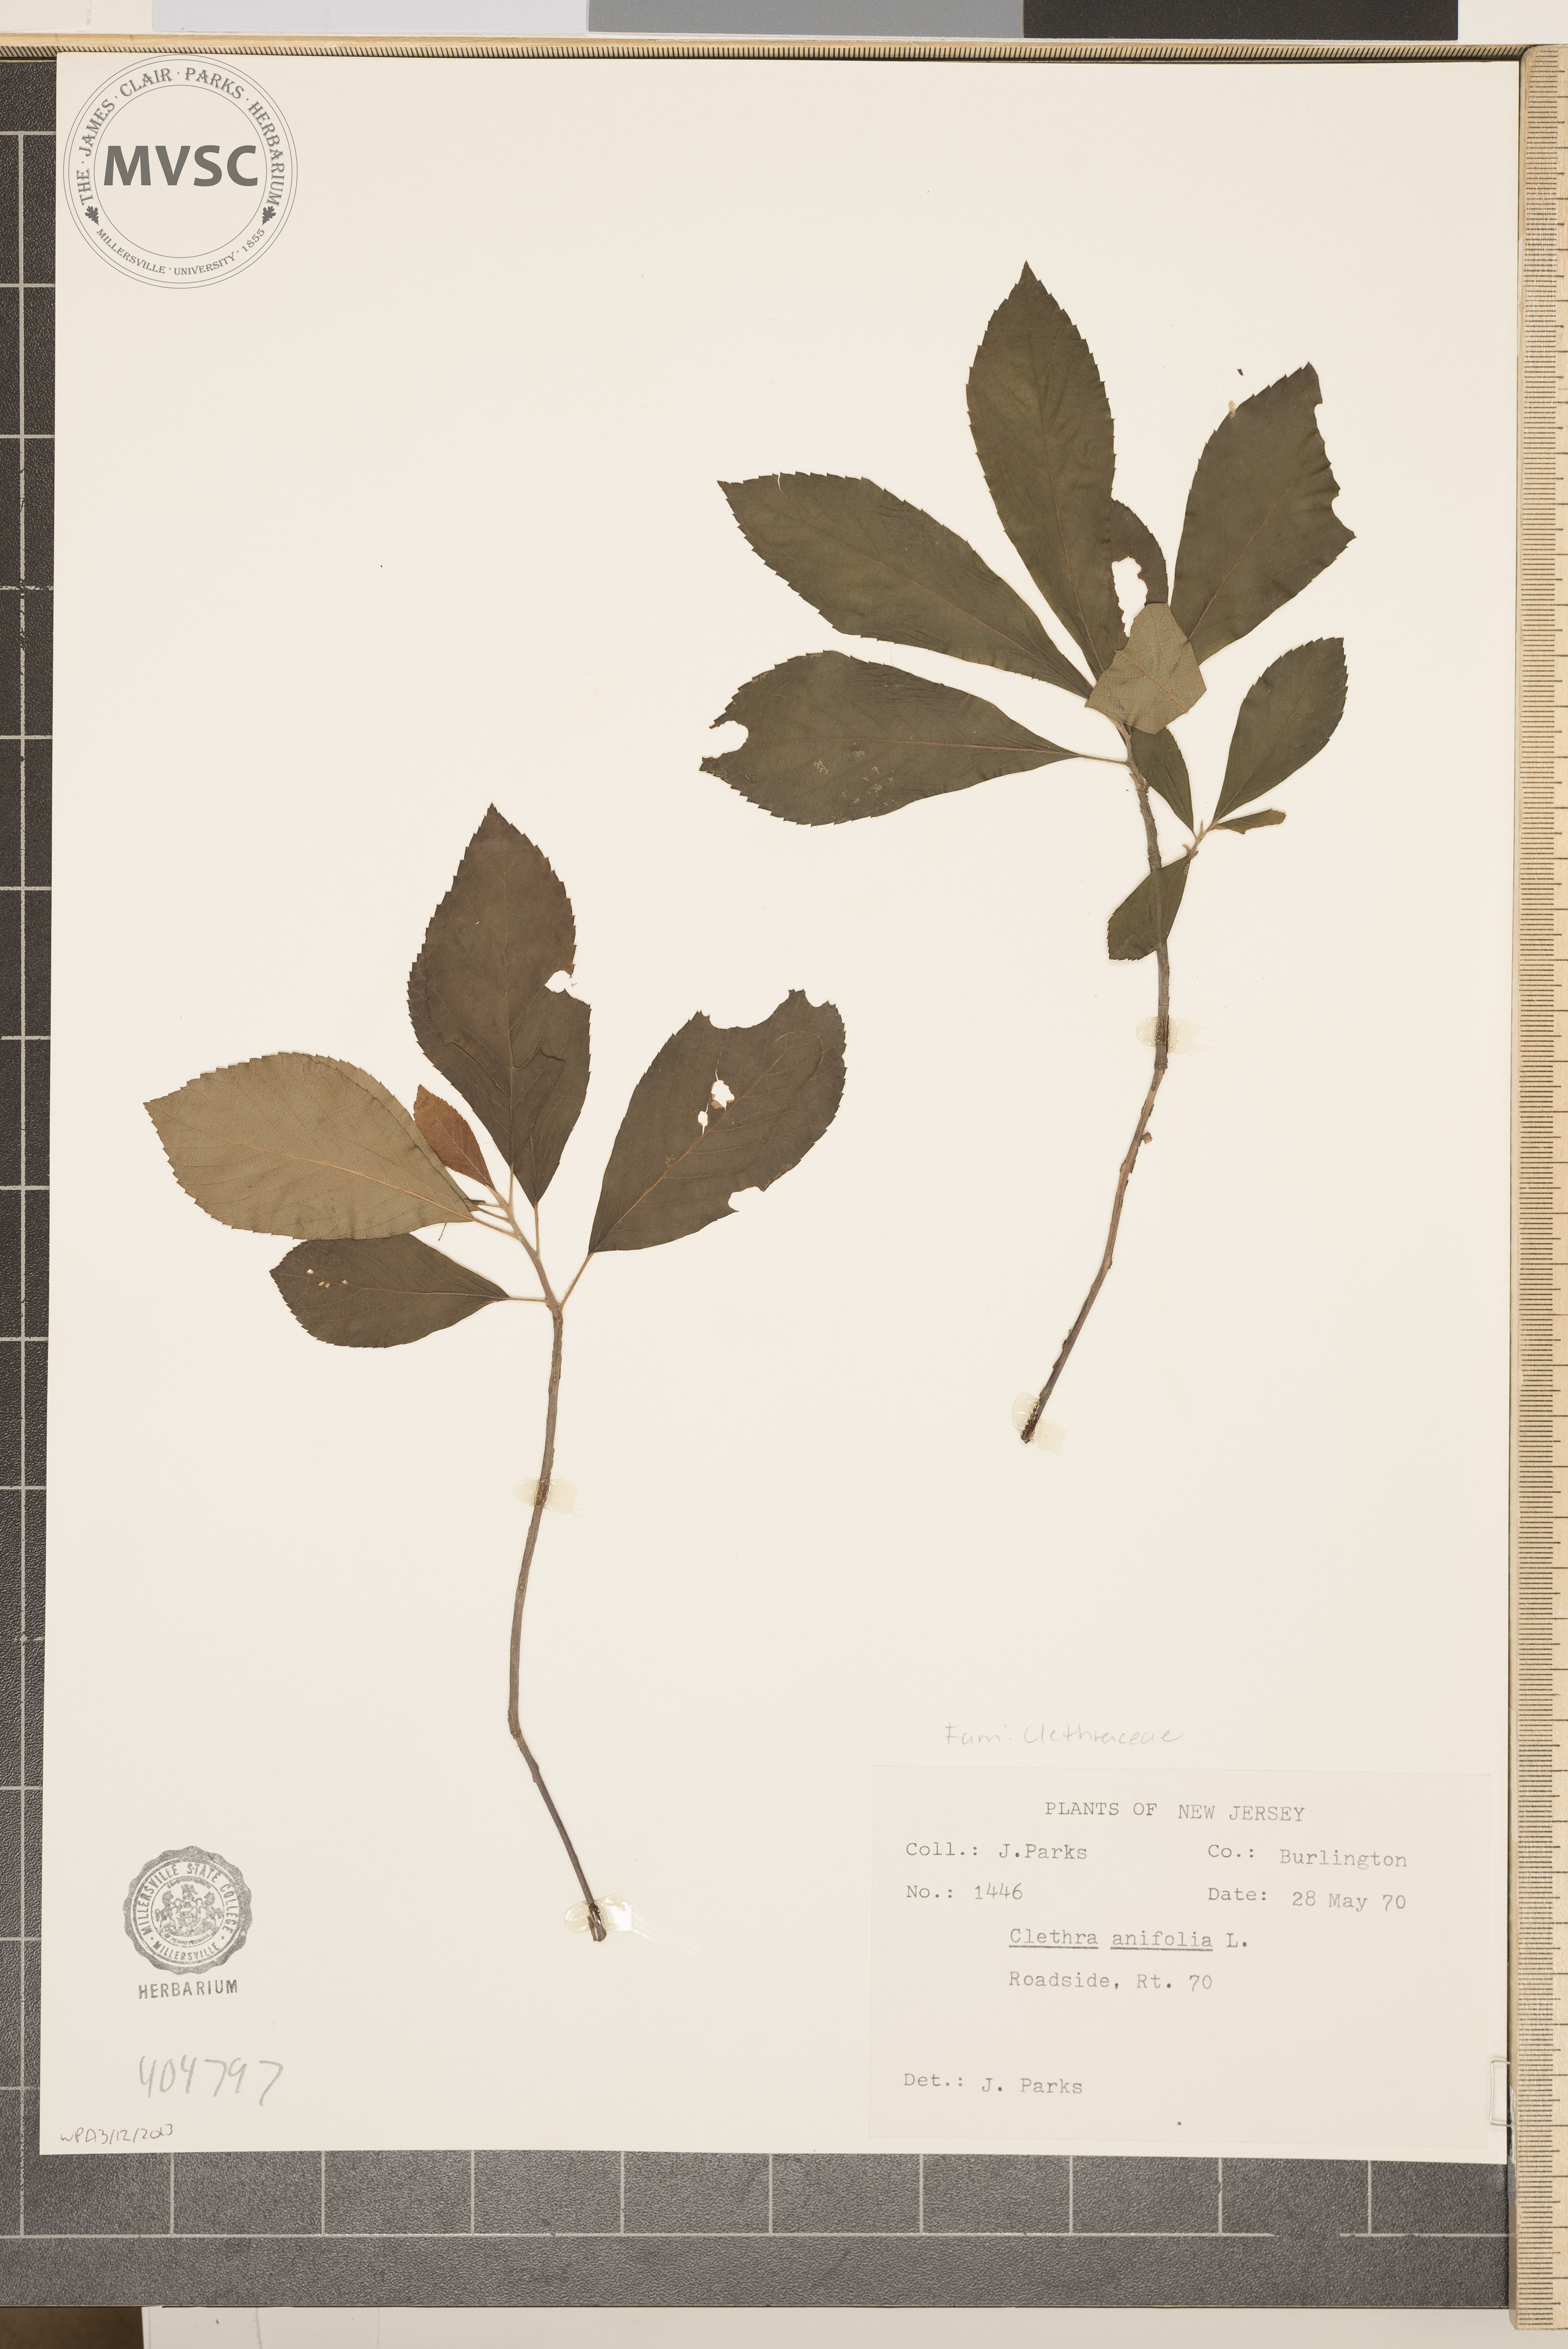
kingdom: Plantae
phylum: Tracheophyta
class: Magnoliopsida
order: Ericales
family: Clethraceae
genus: Clethra
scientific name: Clethra alnifolia
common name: Sweet pepperbush
